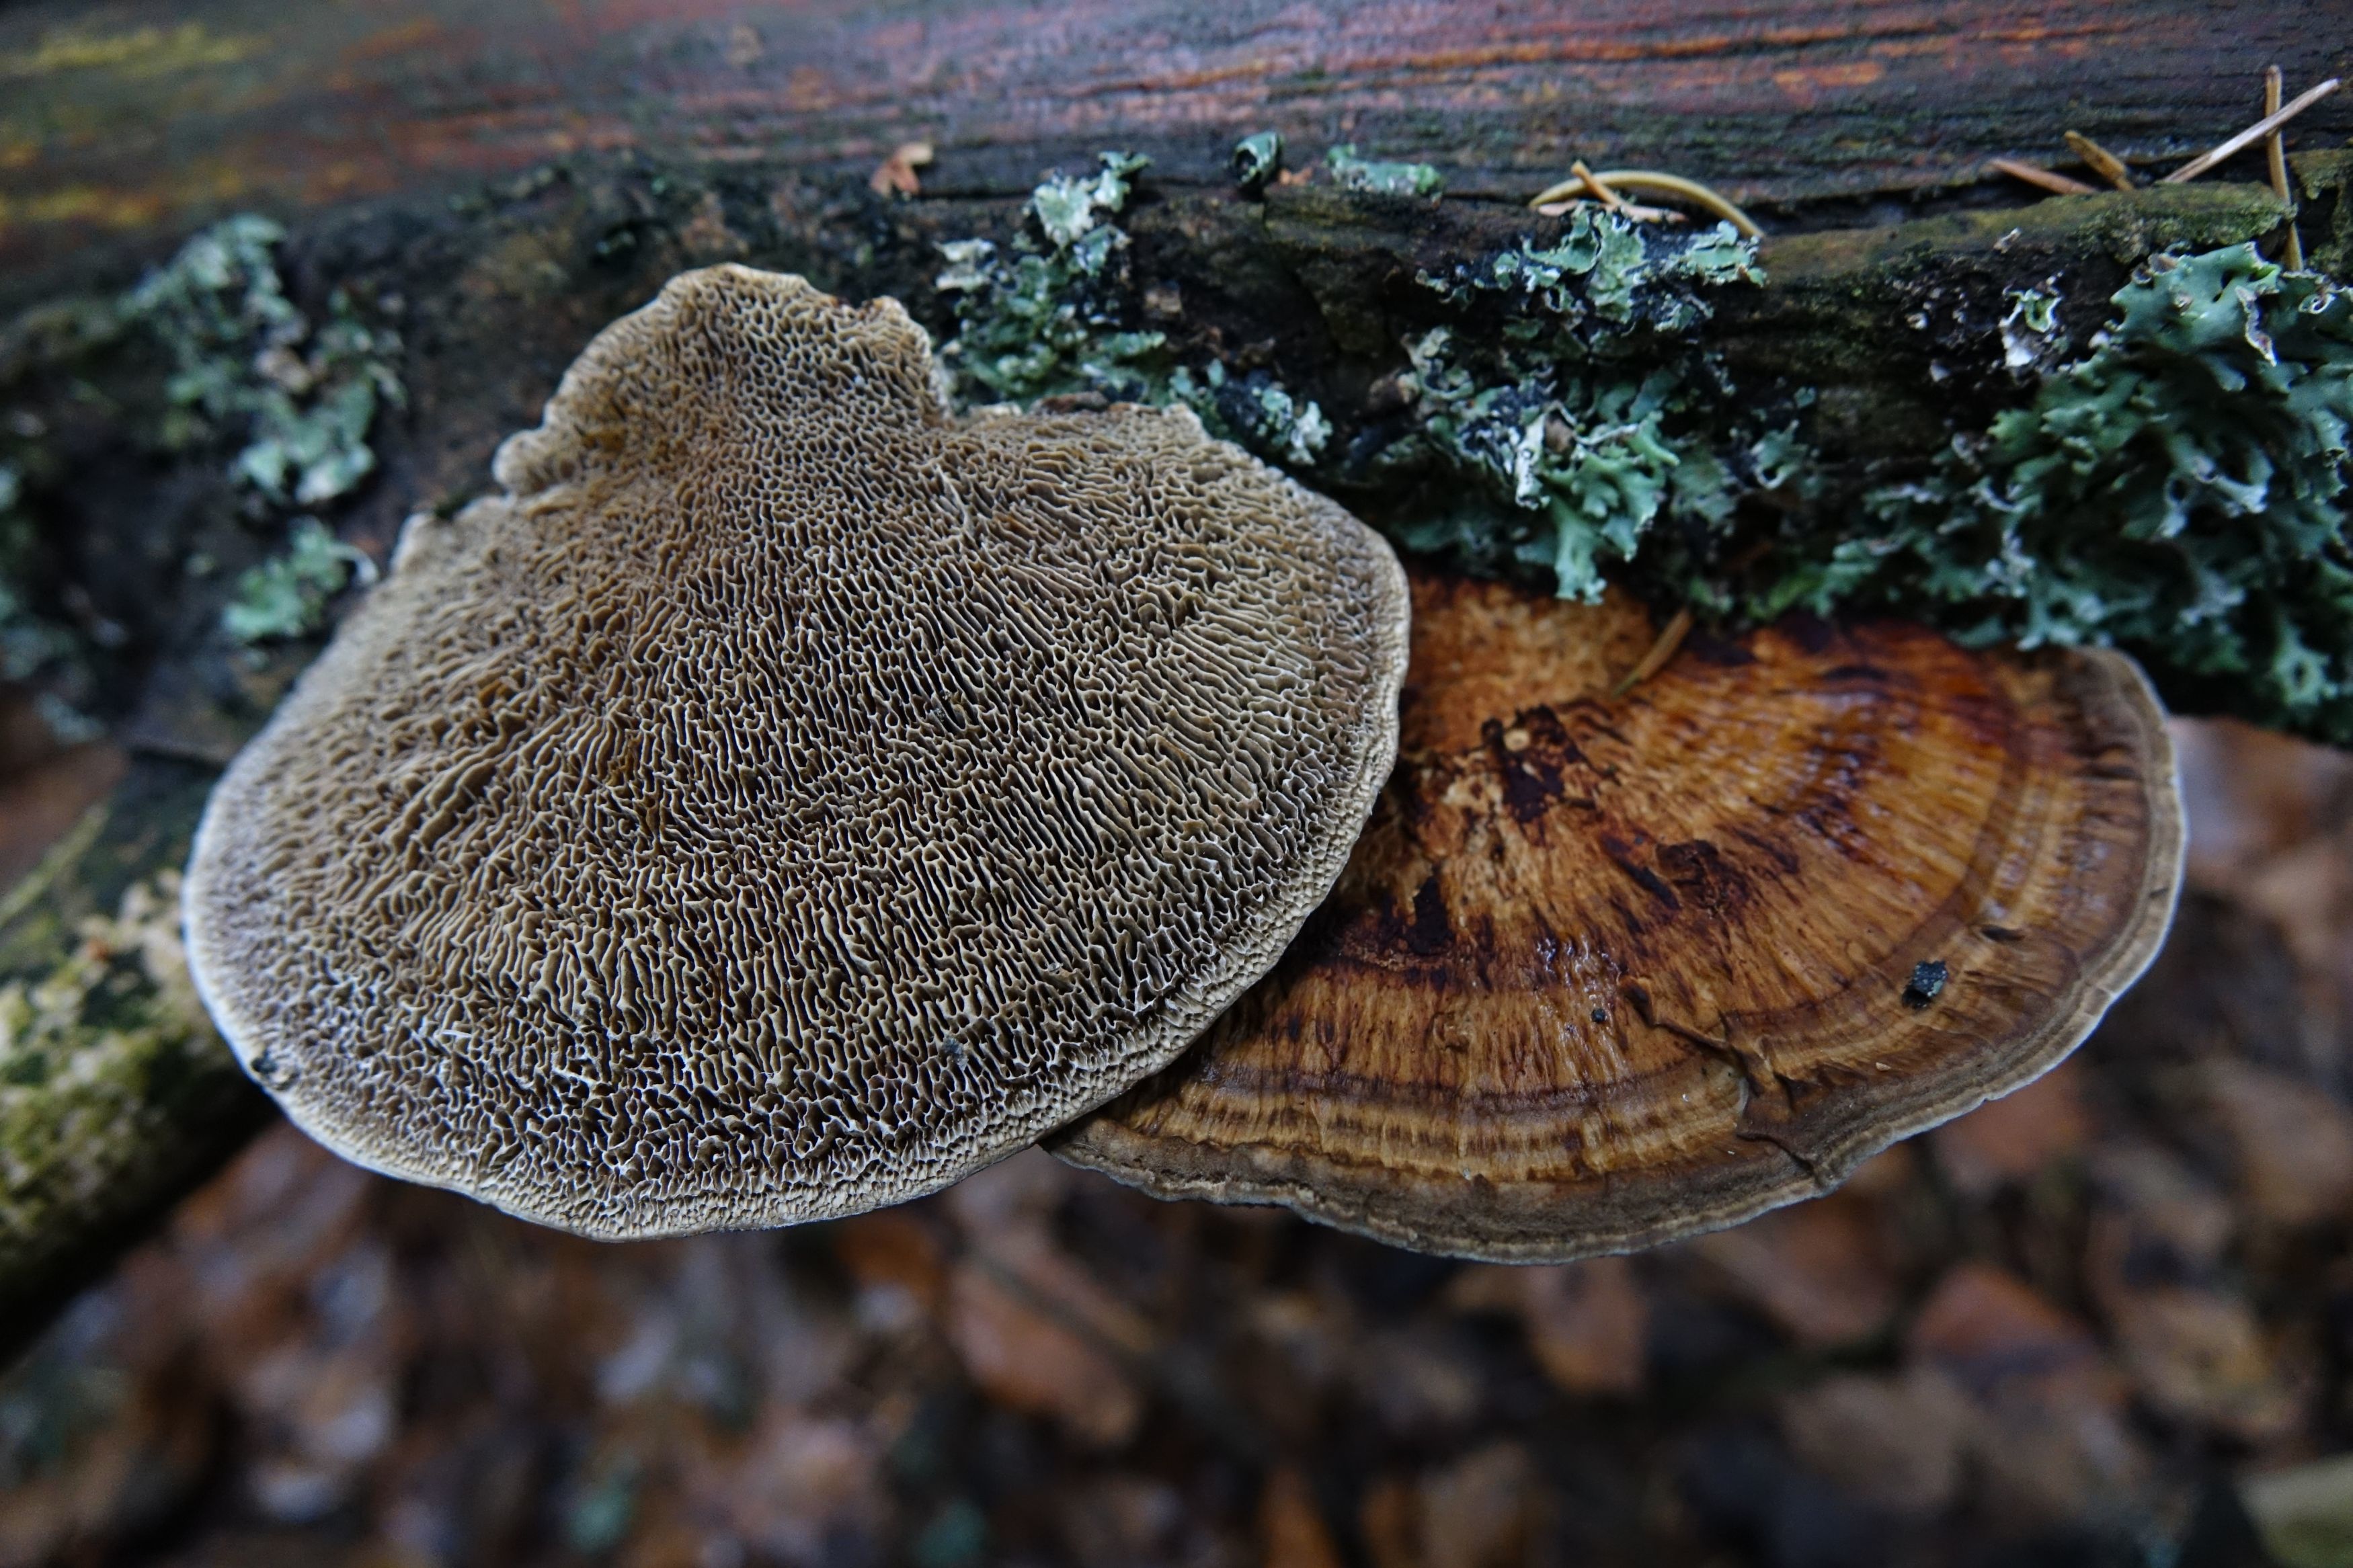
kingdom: Fungi
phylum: Basidiomycota
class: Agaricomycetes
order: Polyporales
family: Polyporaceae
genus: Daedaleopsis
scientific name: Daedaleopsis confragosa
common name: Blushing bracket
